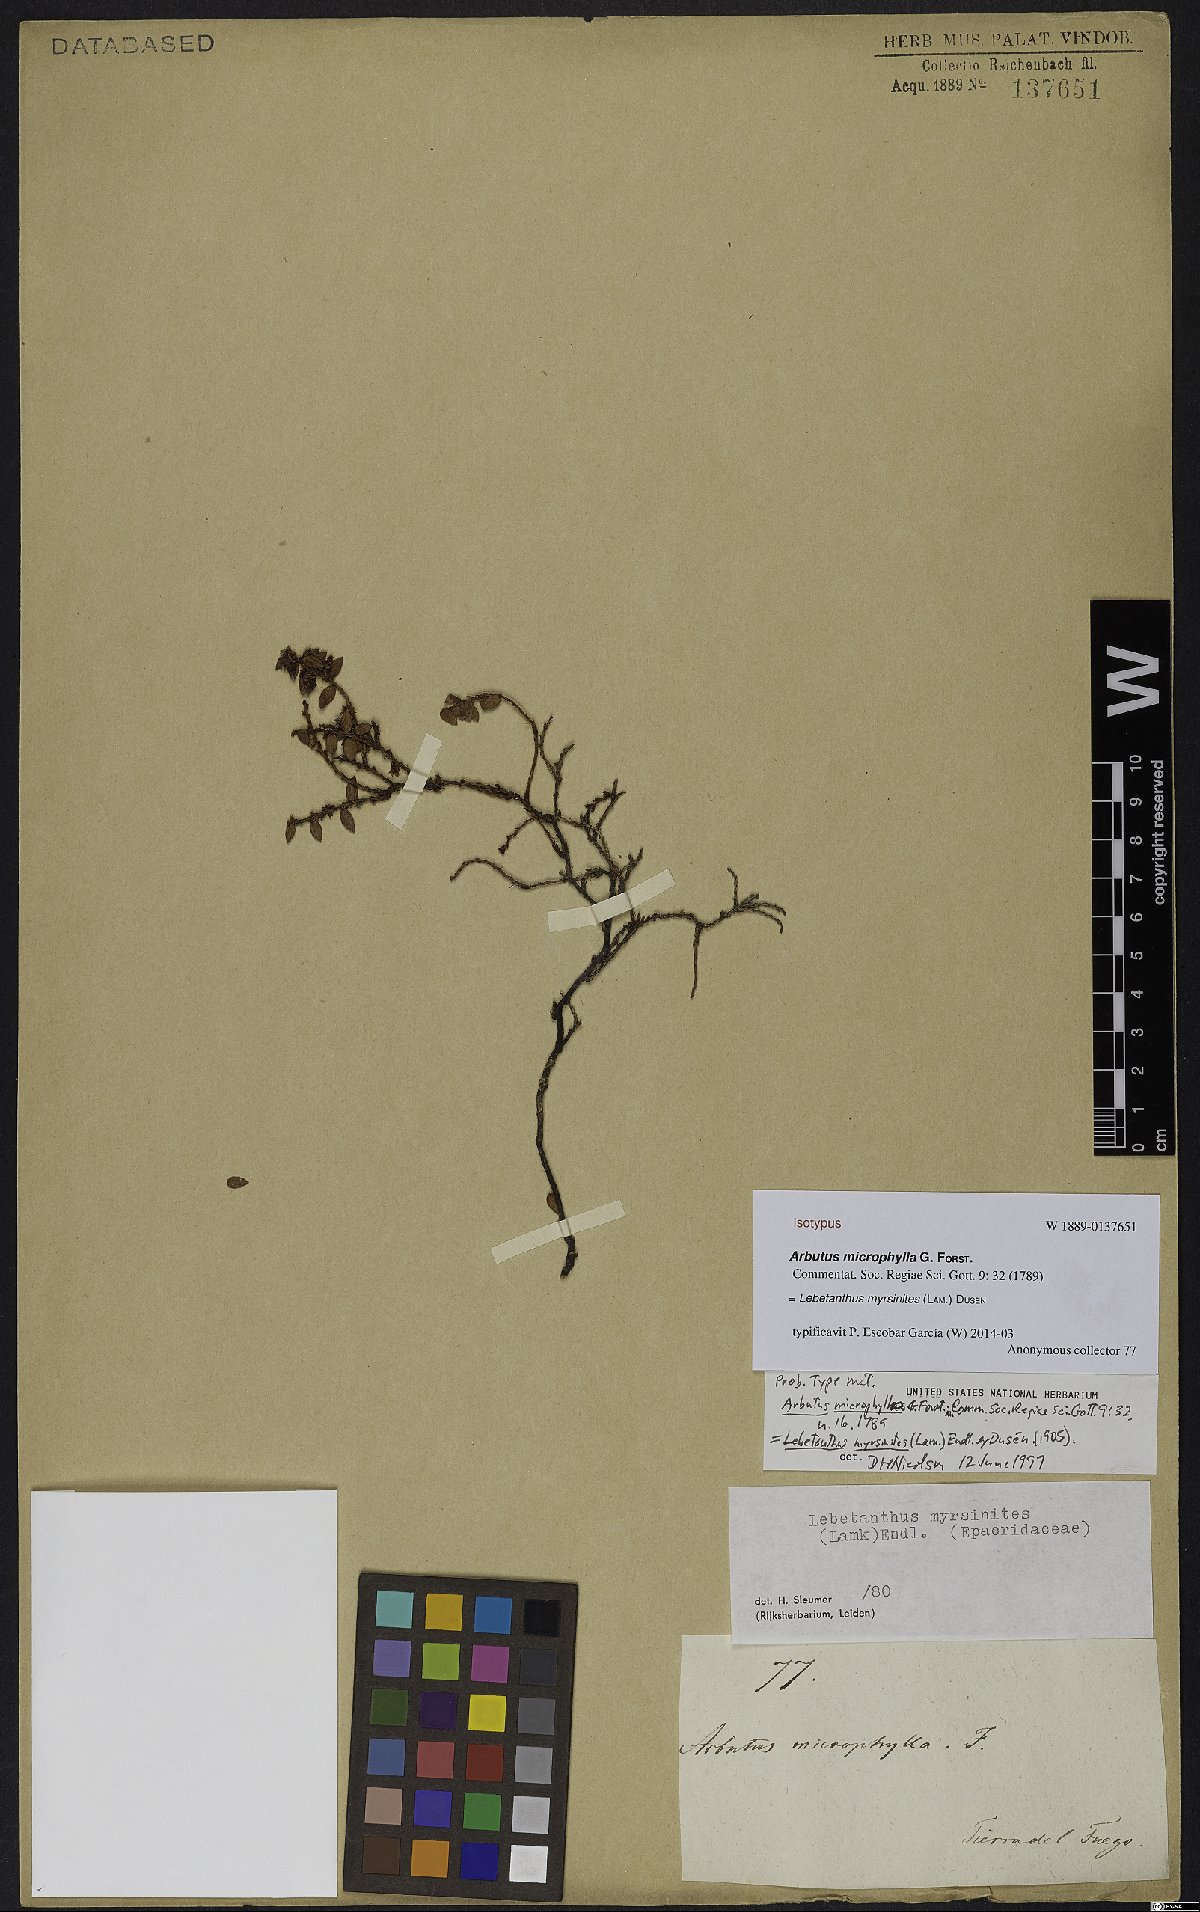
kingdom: Plantae
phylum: Tracheophyta
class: Magnoliopsida
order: Ericales
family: Ericaceae
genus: Lebetanthus
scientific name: Lebetanthus myrsinites
